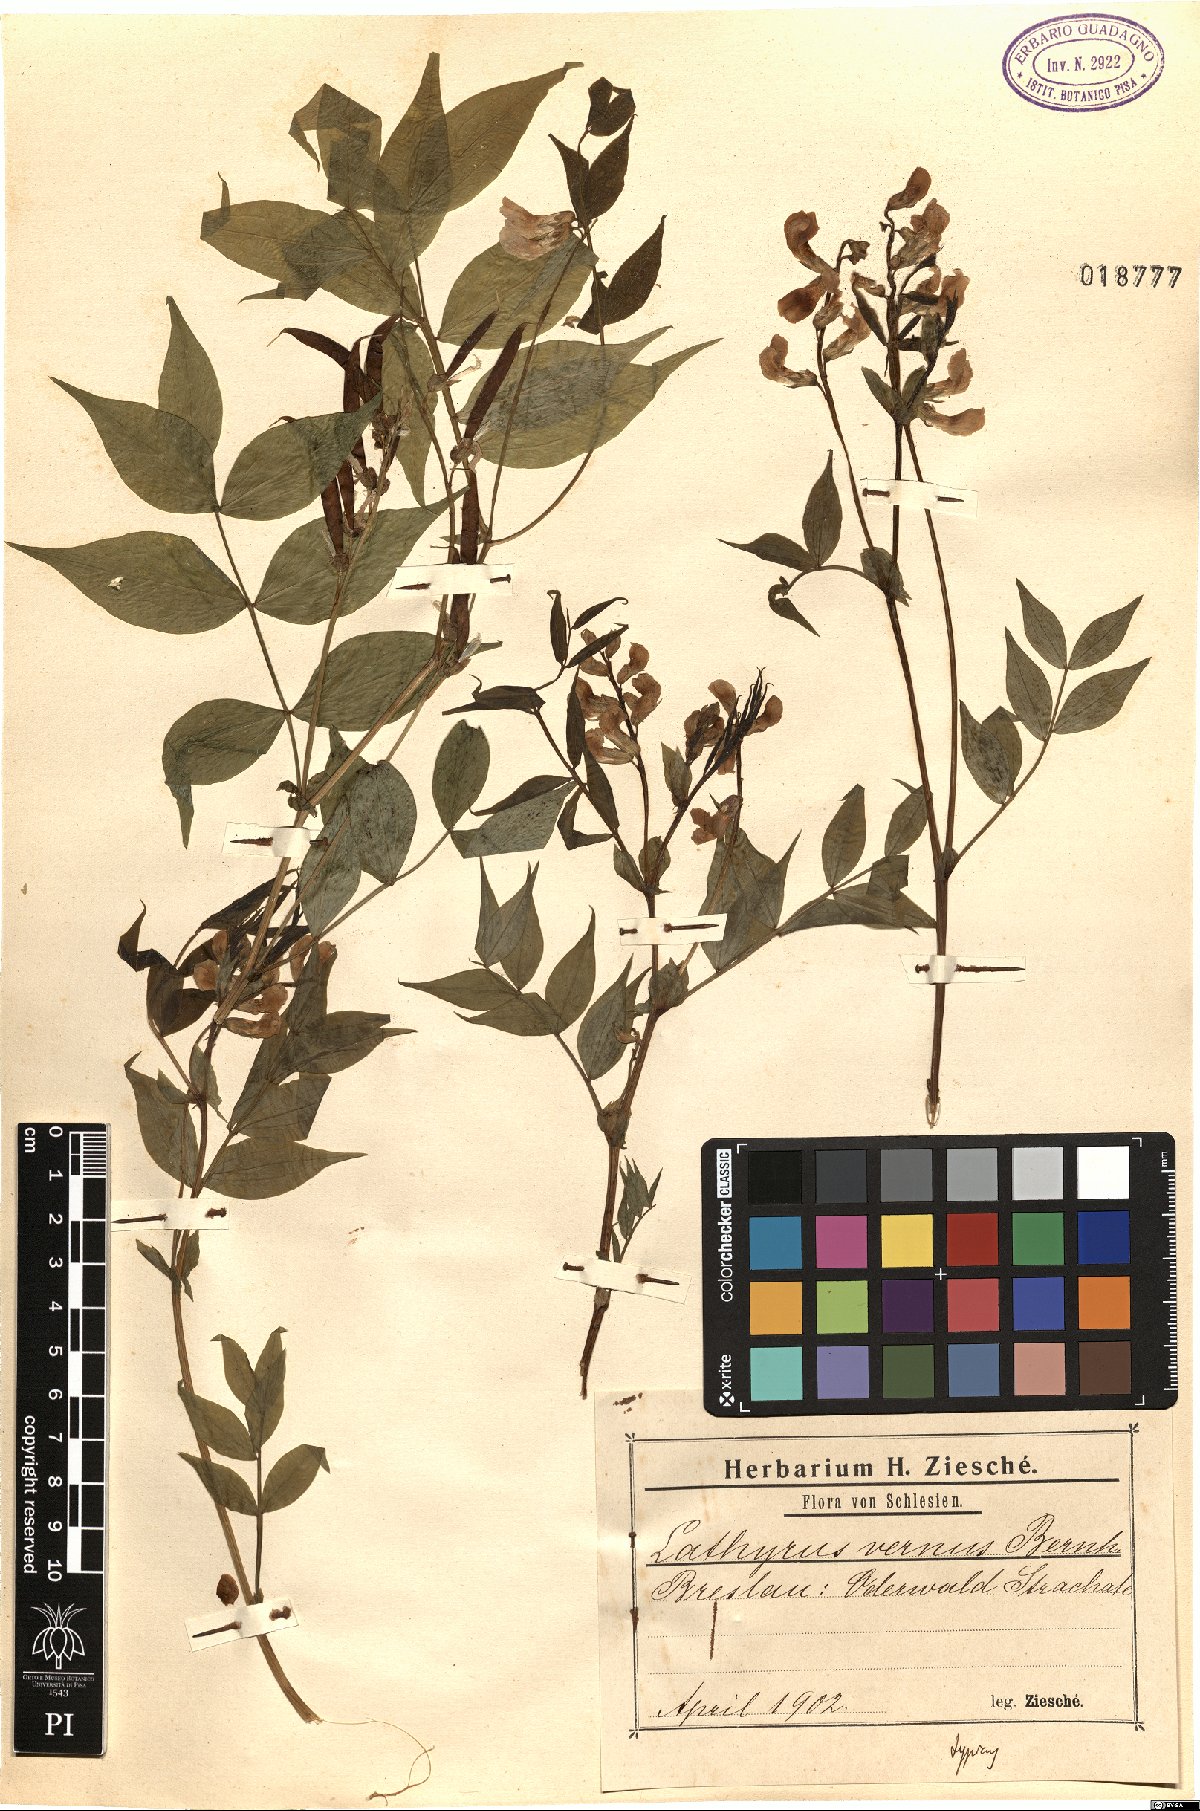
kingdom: Plantae
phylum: Tracheophyta
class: Magnoliopsida
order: Fabales
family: Fabaceae
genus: Lathyrus
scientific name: Lathyrus vernus
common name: Spring pea
